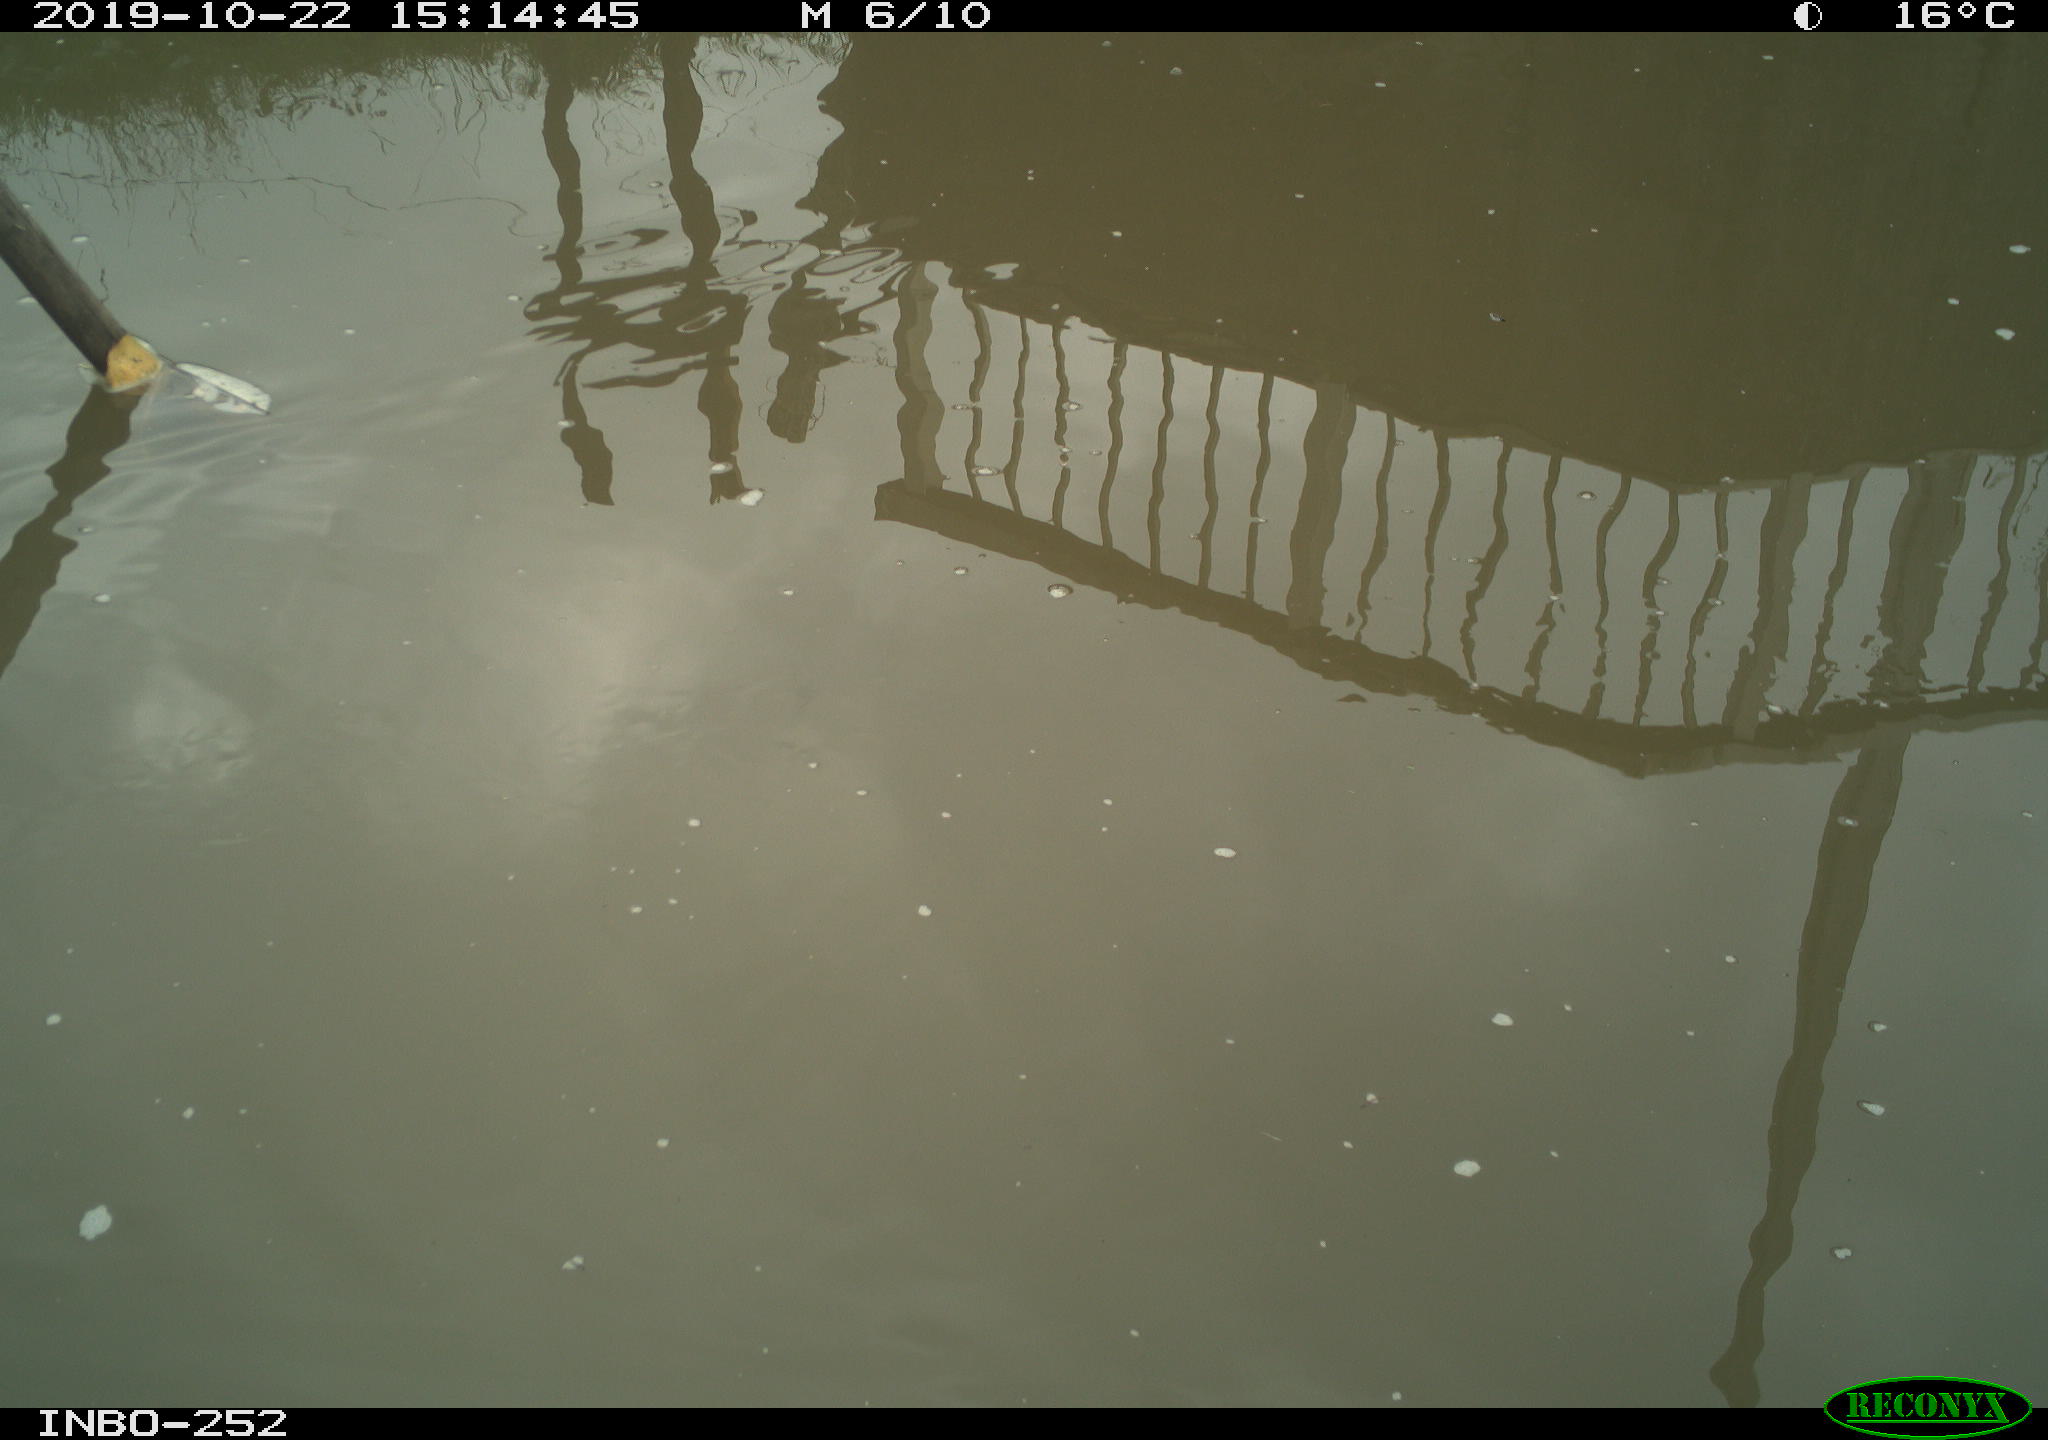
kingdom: Animalia
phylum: Chordata
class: Aves
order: Gruiformes
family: Rallidae
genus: Gallinula
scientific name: Gallinula chloropus
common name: Common moorhen
